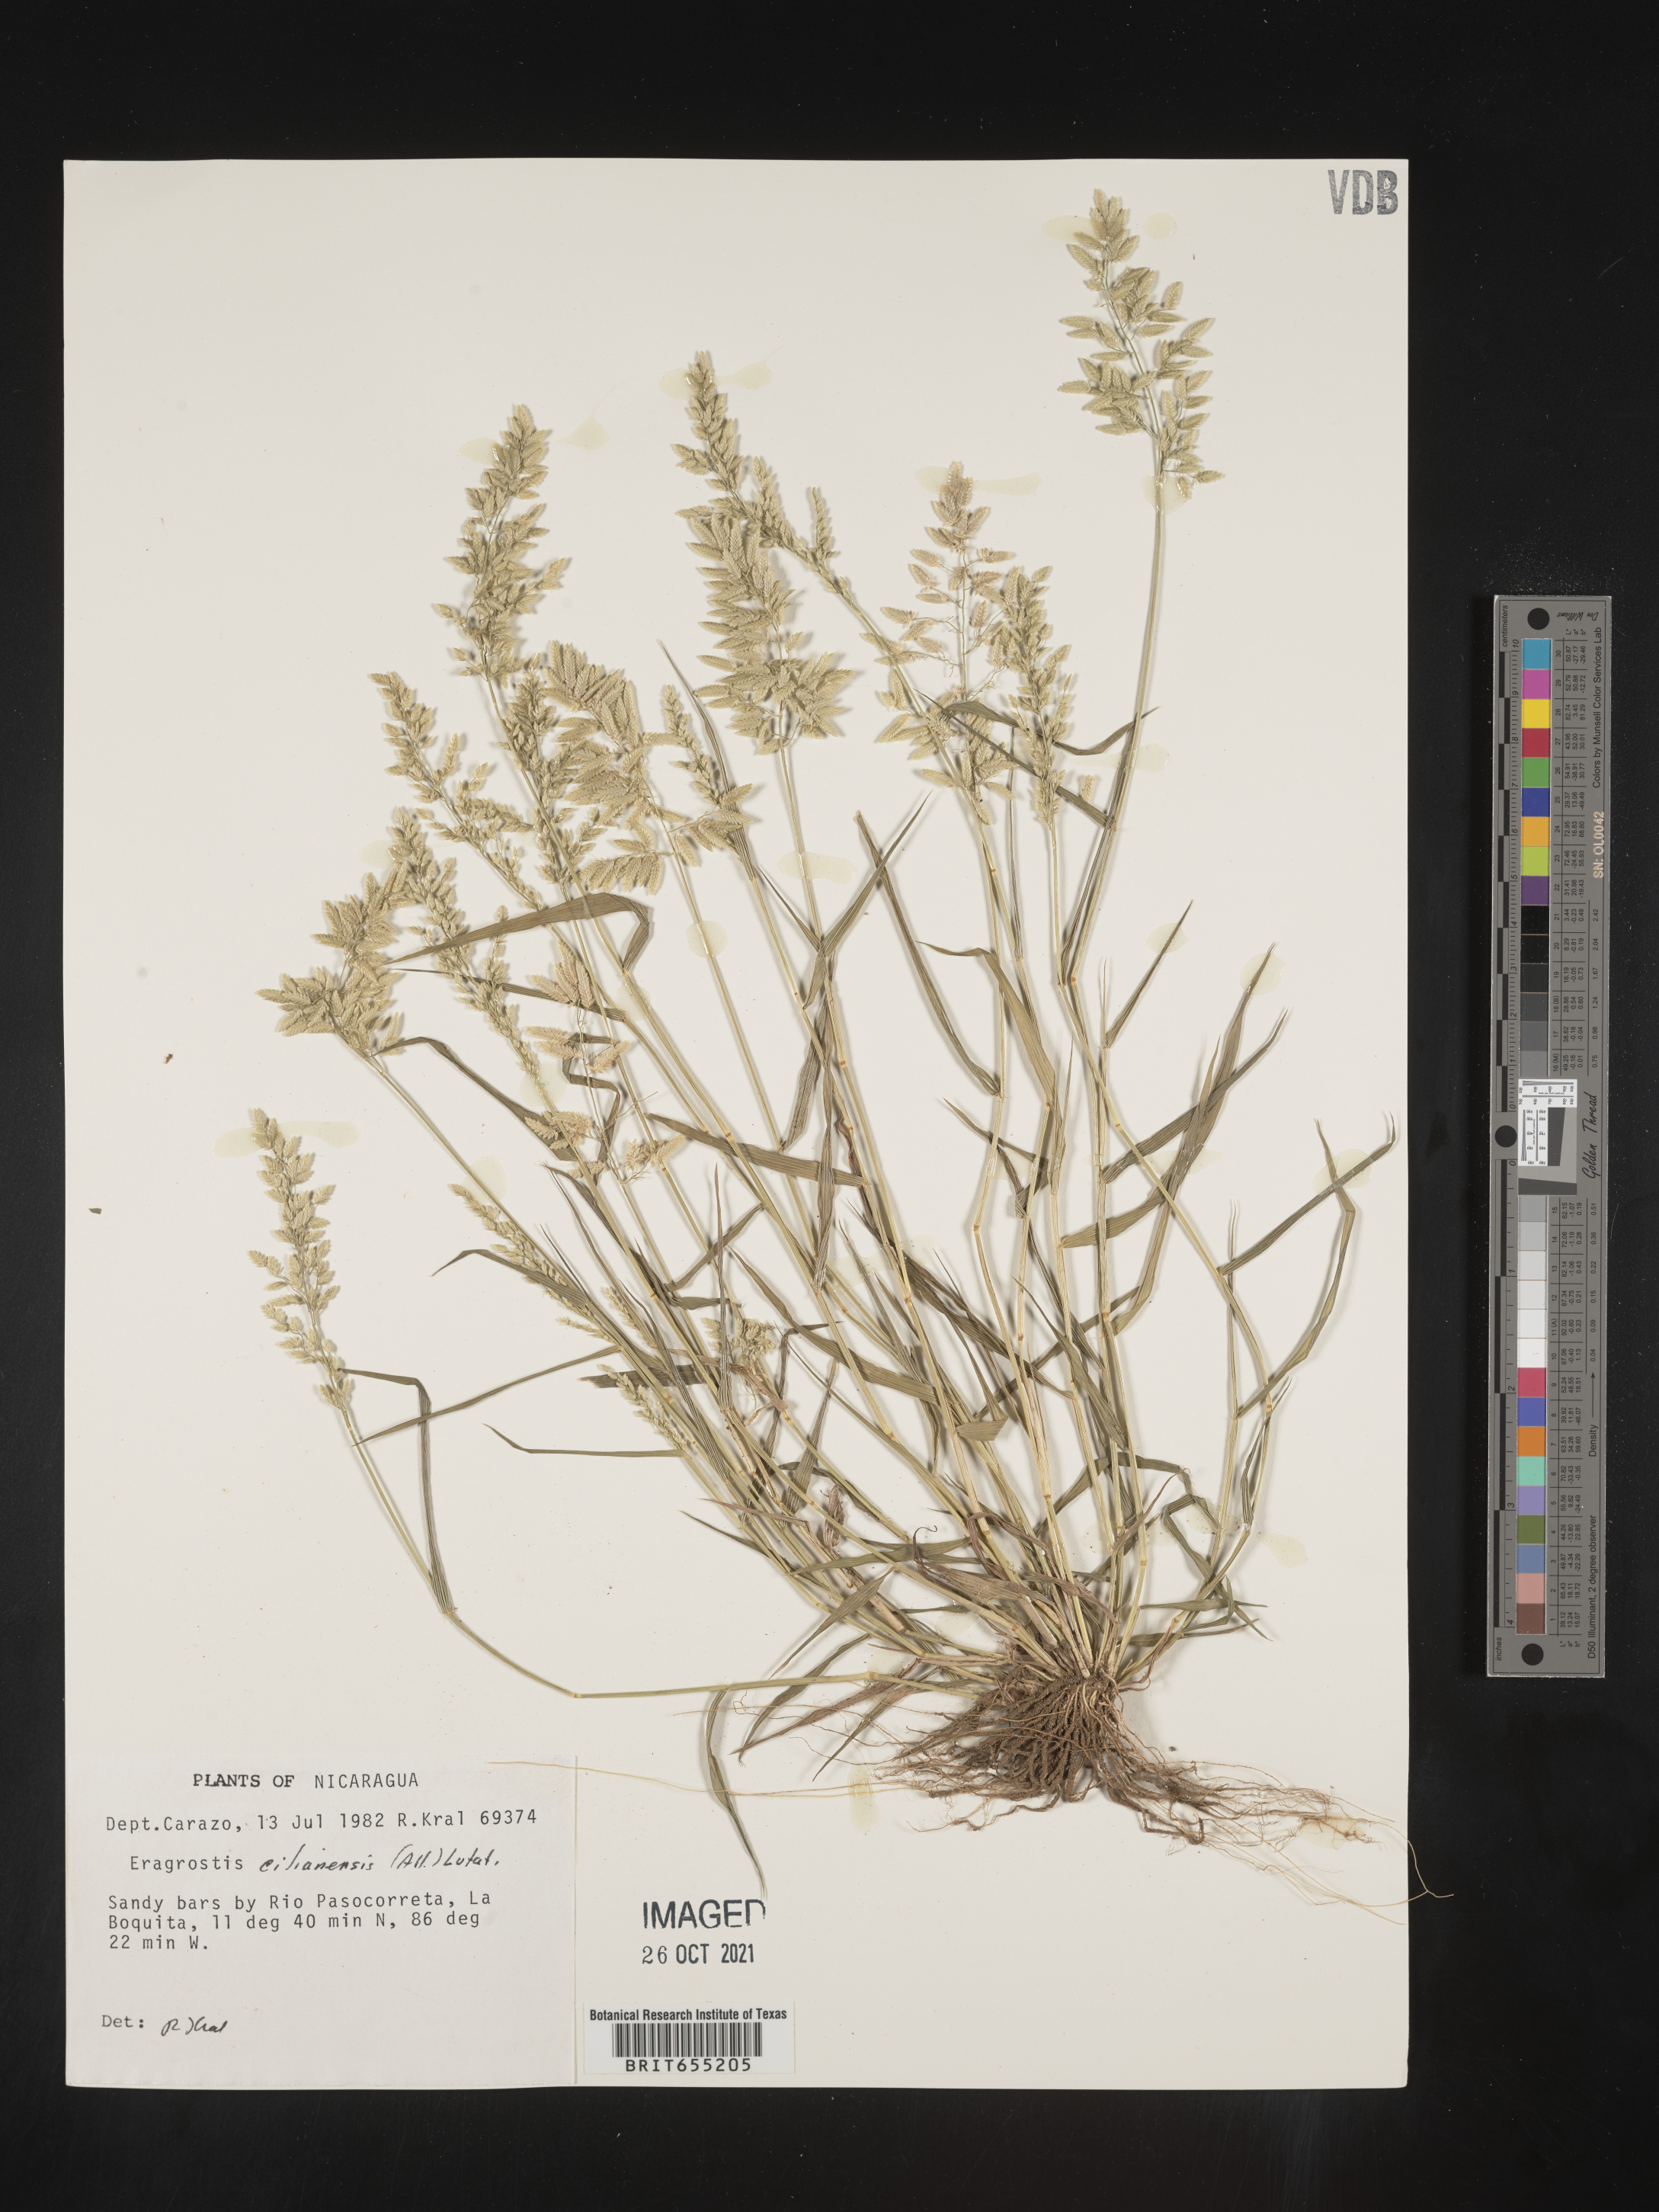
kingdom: Plantae
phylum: Tracheophyta
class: Liliopsida
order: Poales
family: Poaceae
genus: Eragrostis
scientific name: Eragrostis
